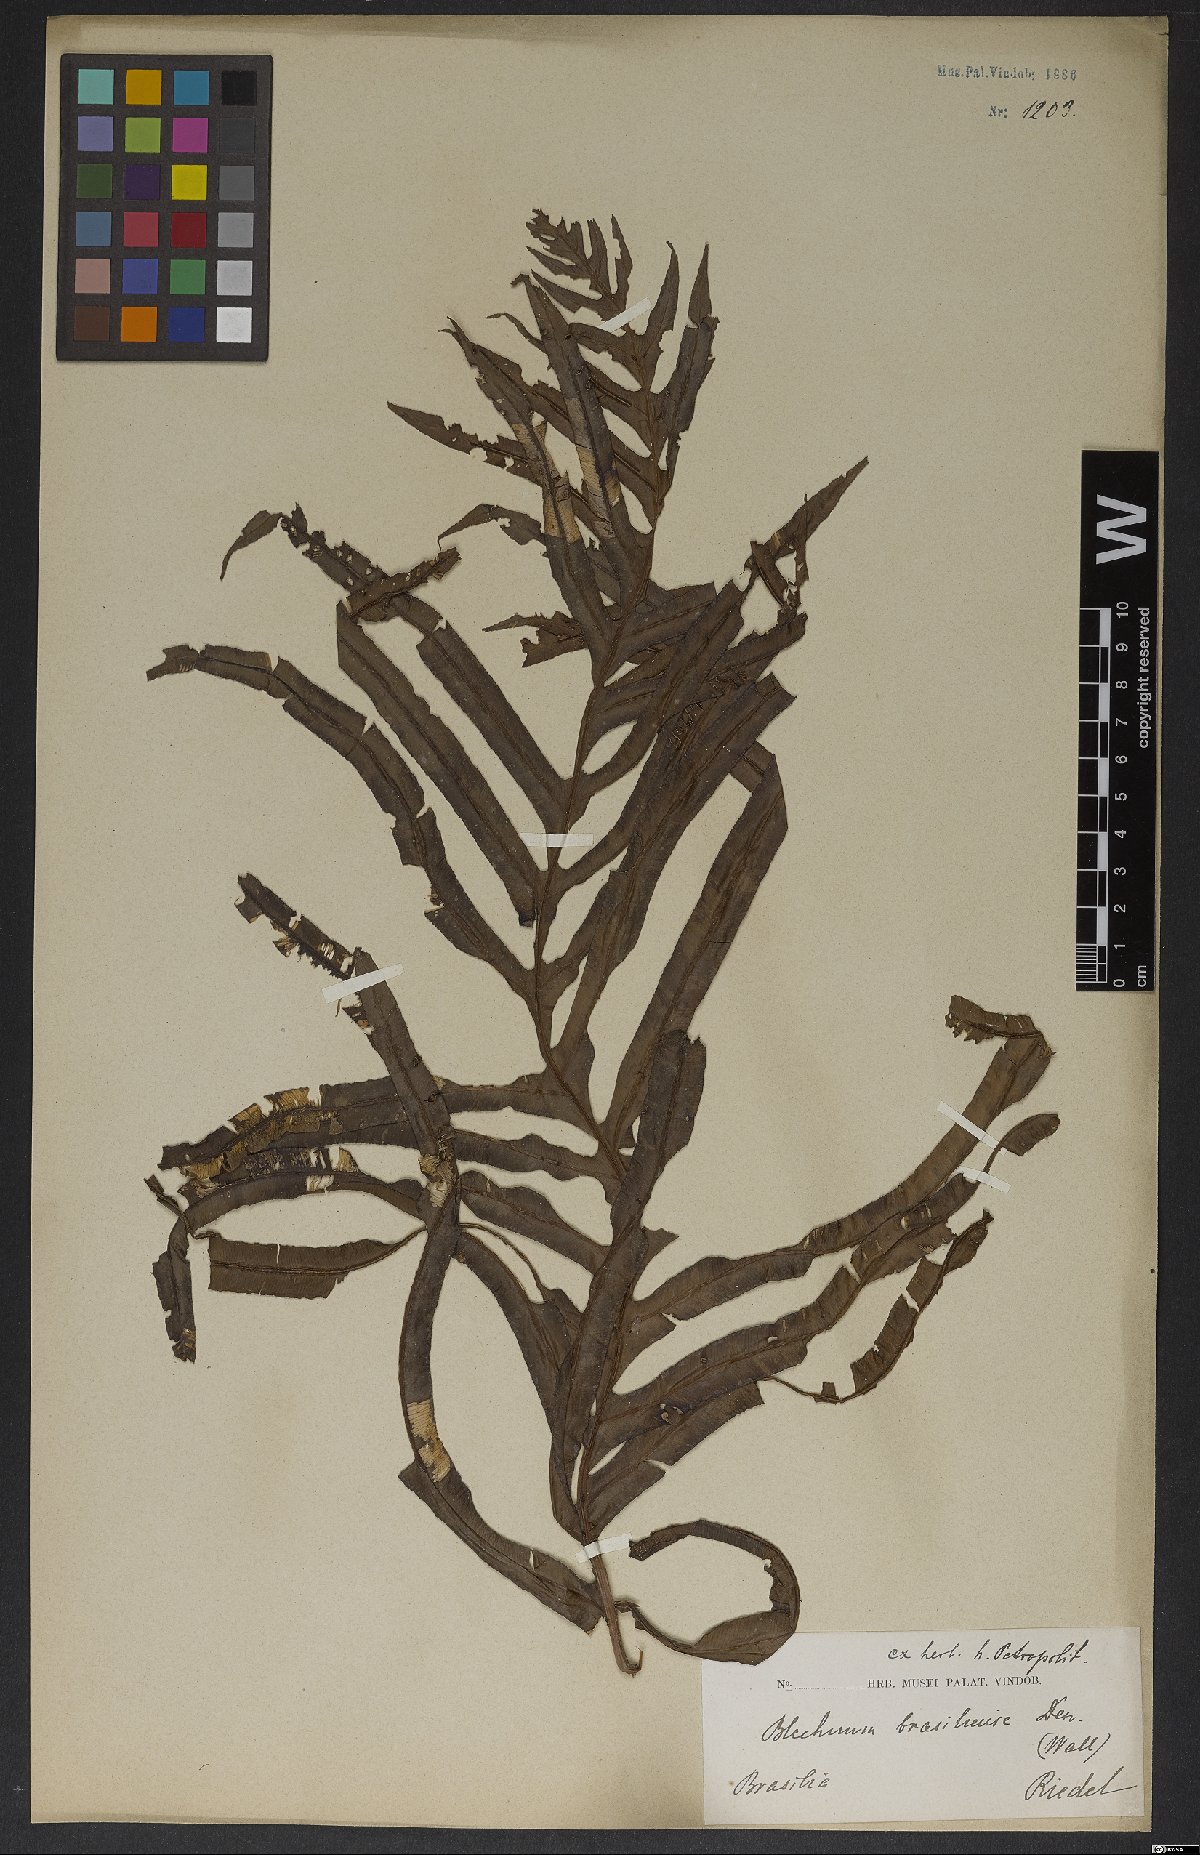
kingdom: Plantae
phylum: Tracheophyta
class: Polypodiopsida
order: Polypodiales
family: Blechnaceae
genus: Neoblechnum
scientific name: Neoblechnum brasiliense
